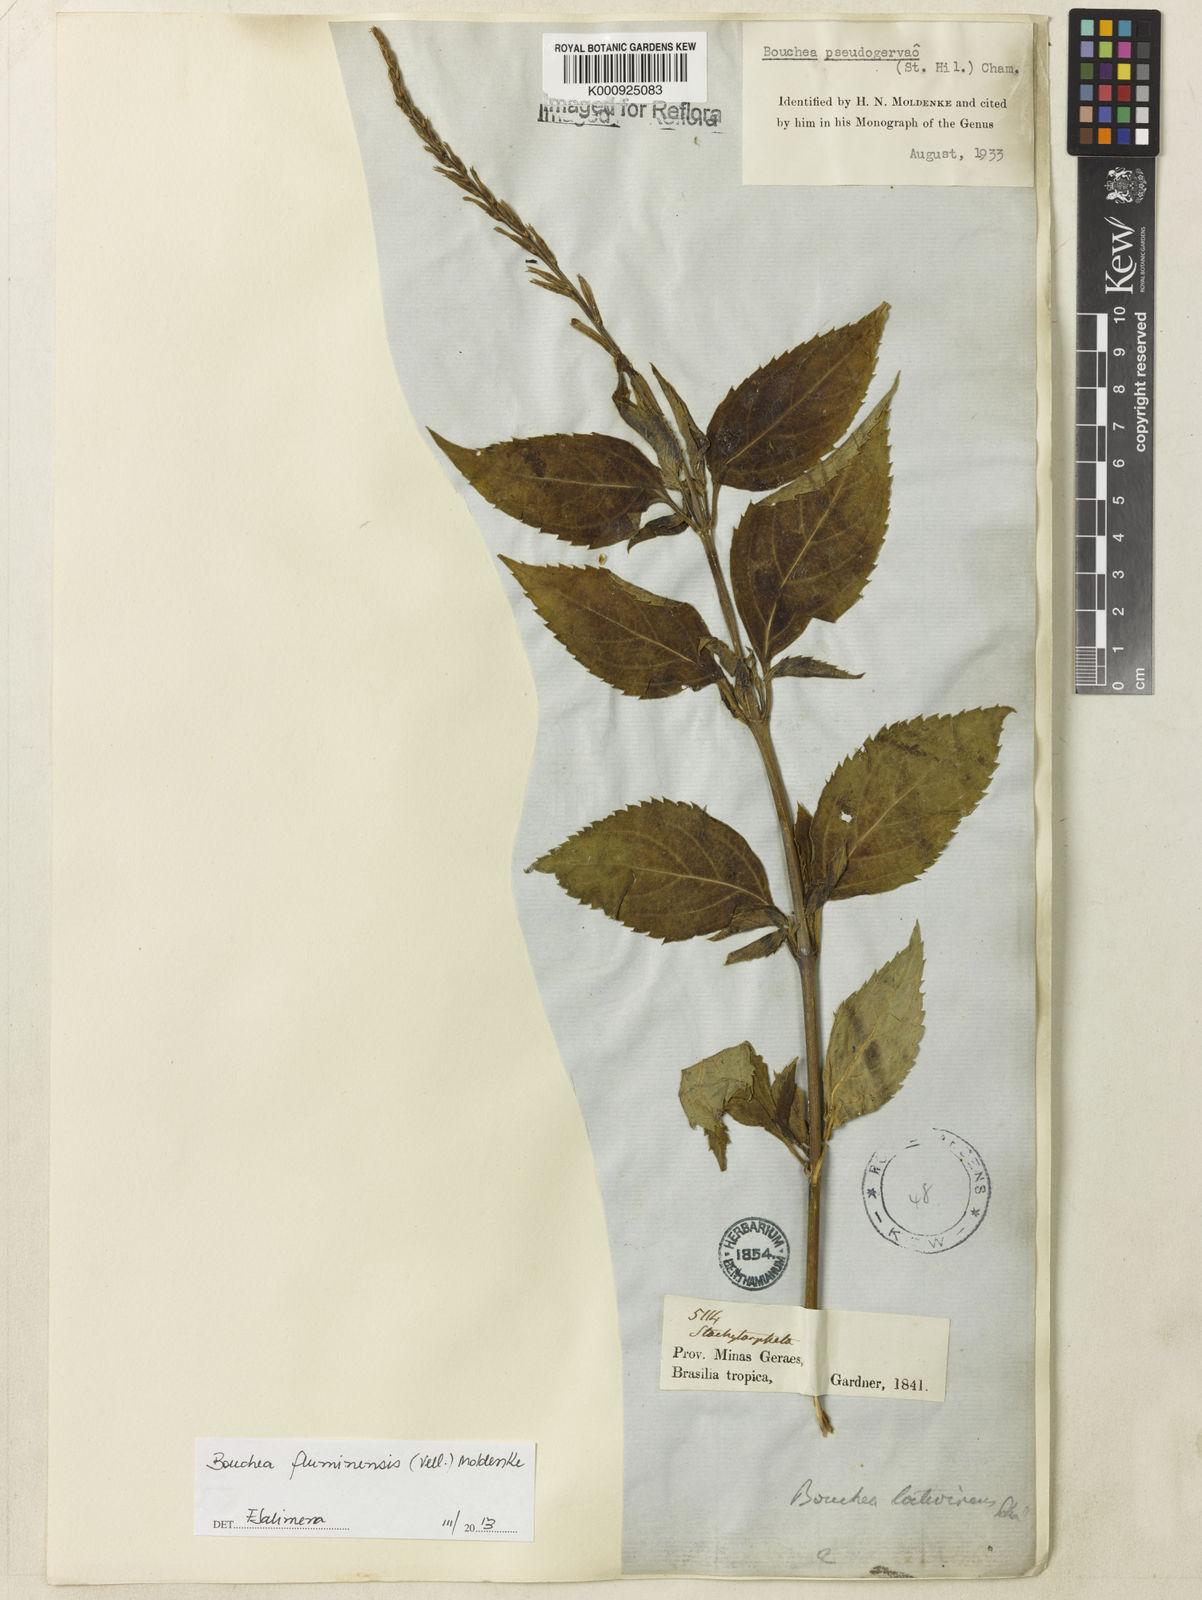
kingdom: Plantae
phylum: Tracheophyta
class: Magnoliopsida
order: Lamiales
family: Verbenaceae
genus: Bouchea
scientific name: Bouchea pseudogervao
